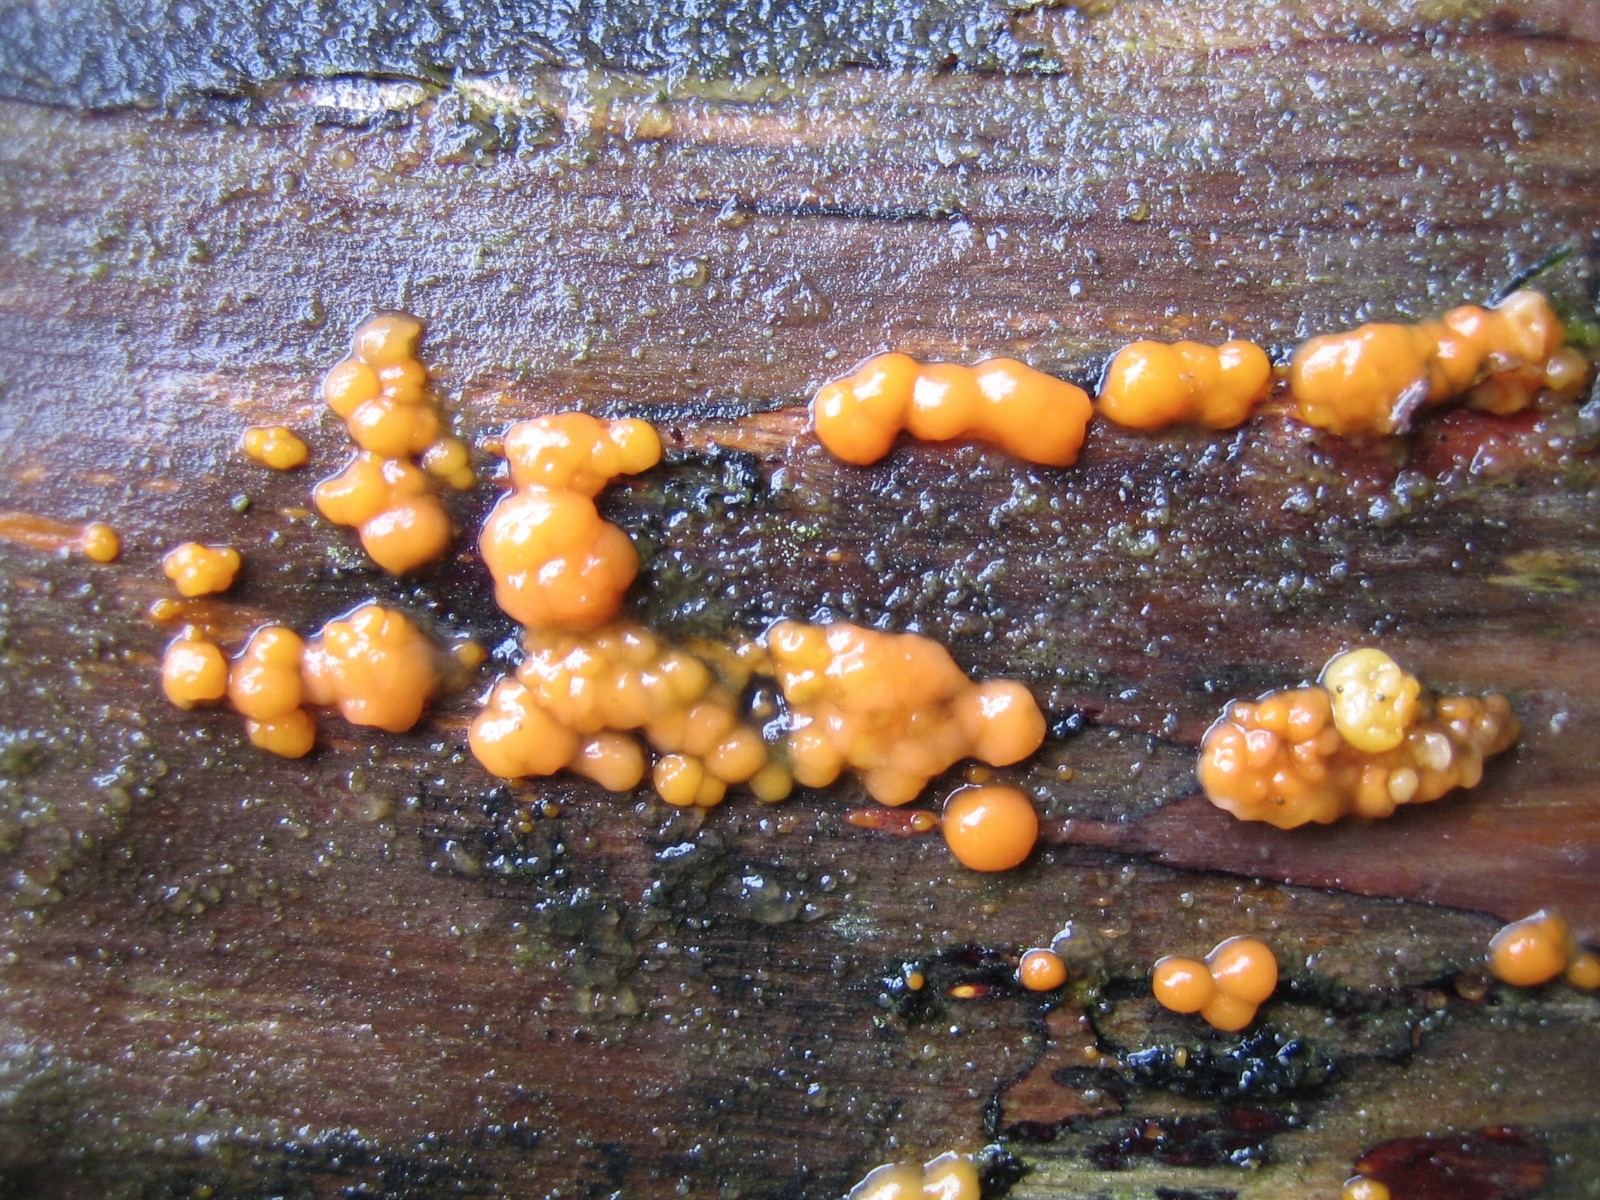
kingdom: Fungi
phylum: Basidiomycota
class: Dacrymycetes
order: Dacrymycetales
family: Dacrymycetaceae
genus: Dacrymyces
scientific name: Dacrymyces stillatus
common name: almindelig tåresvamp
